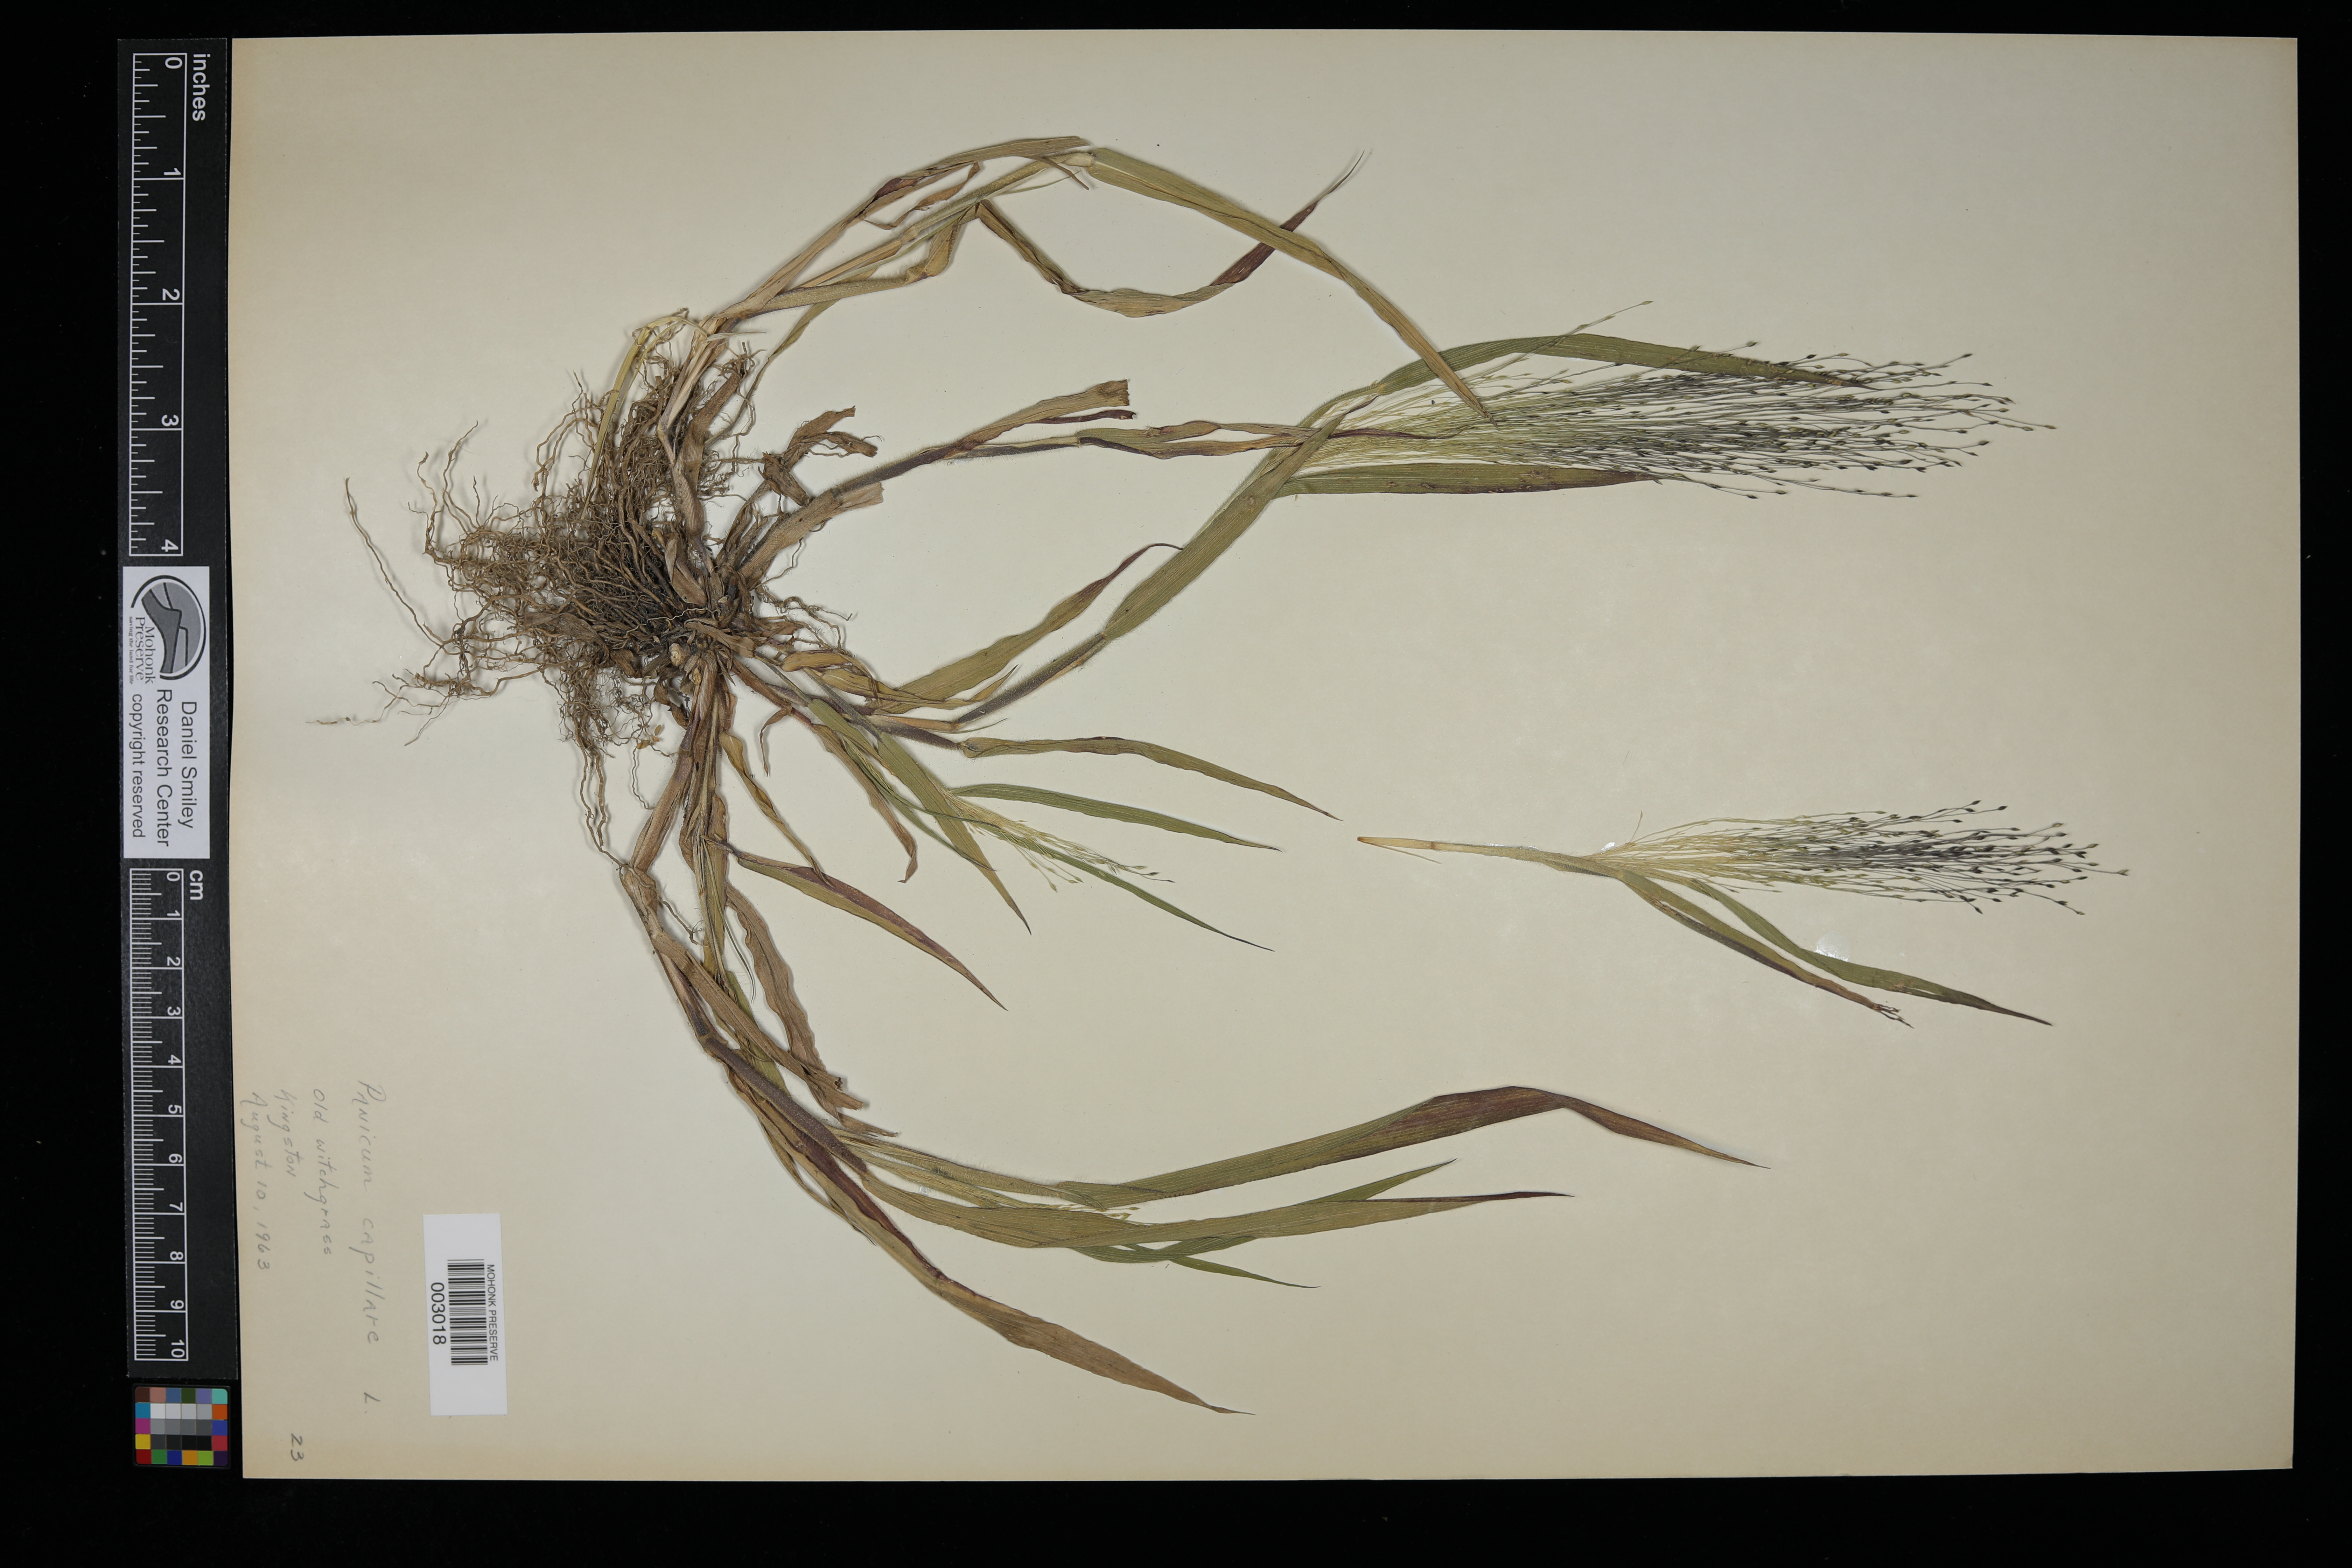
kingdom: Plantae
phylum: Tracheophyta
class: Liliopsida
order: Poales
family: Poaceae
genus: Panicum
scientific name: Panicum capillare
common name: Witch-grass
